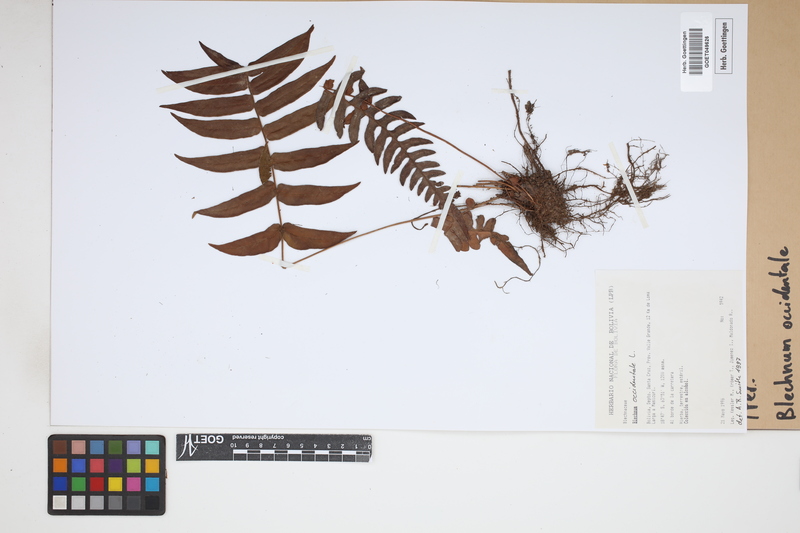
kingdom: Plantae
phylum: Tracheophyta
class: Polypodiopsida
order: Polypodiales
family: Blechnaceae
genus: Blechnum
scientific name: Blechnum occidentale
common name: Hammock fern
